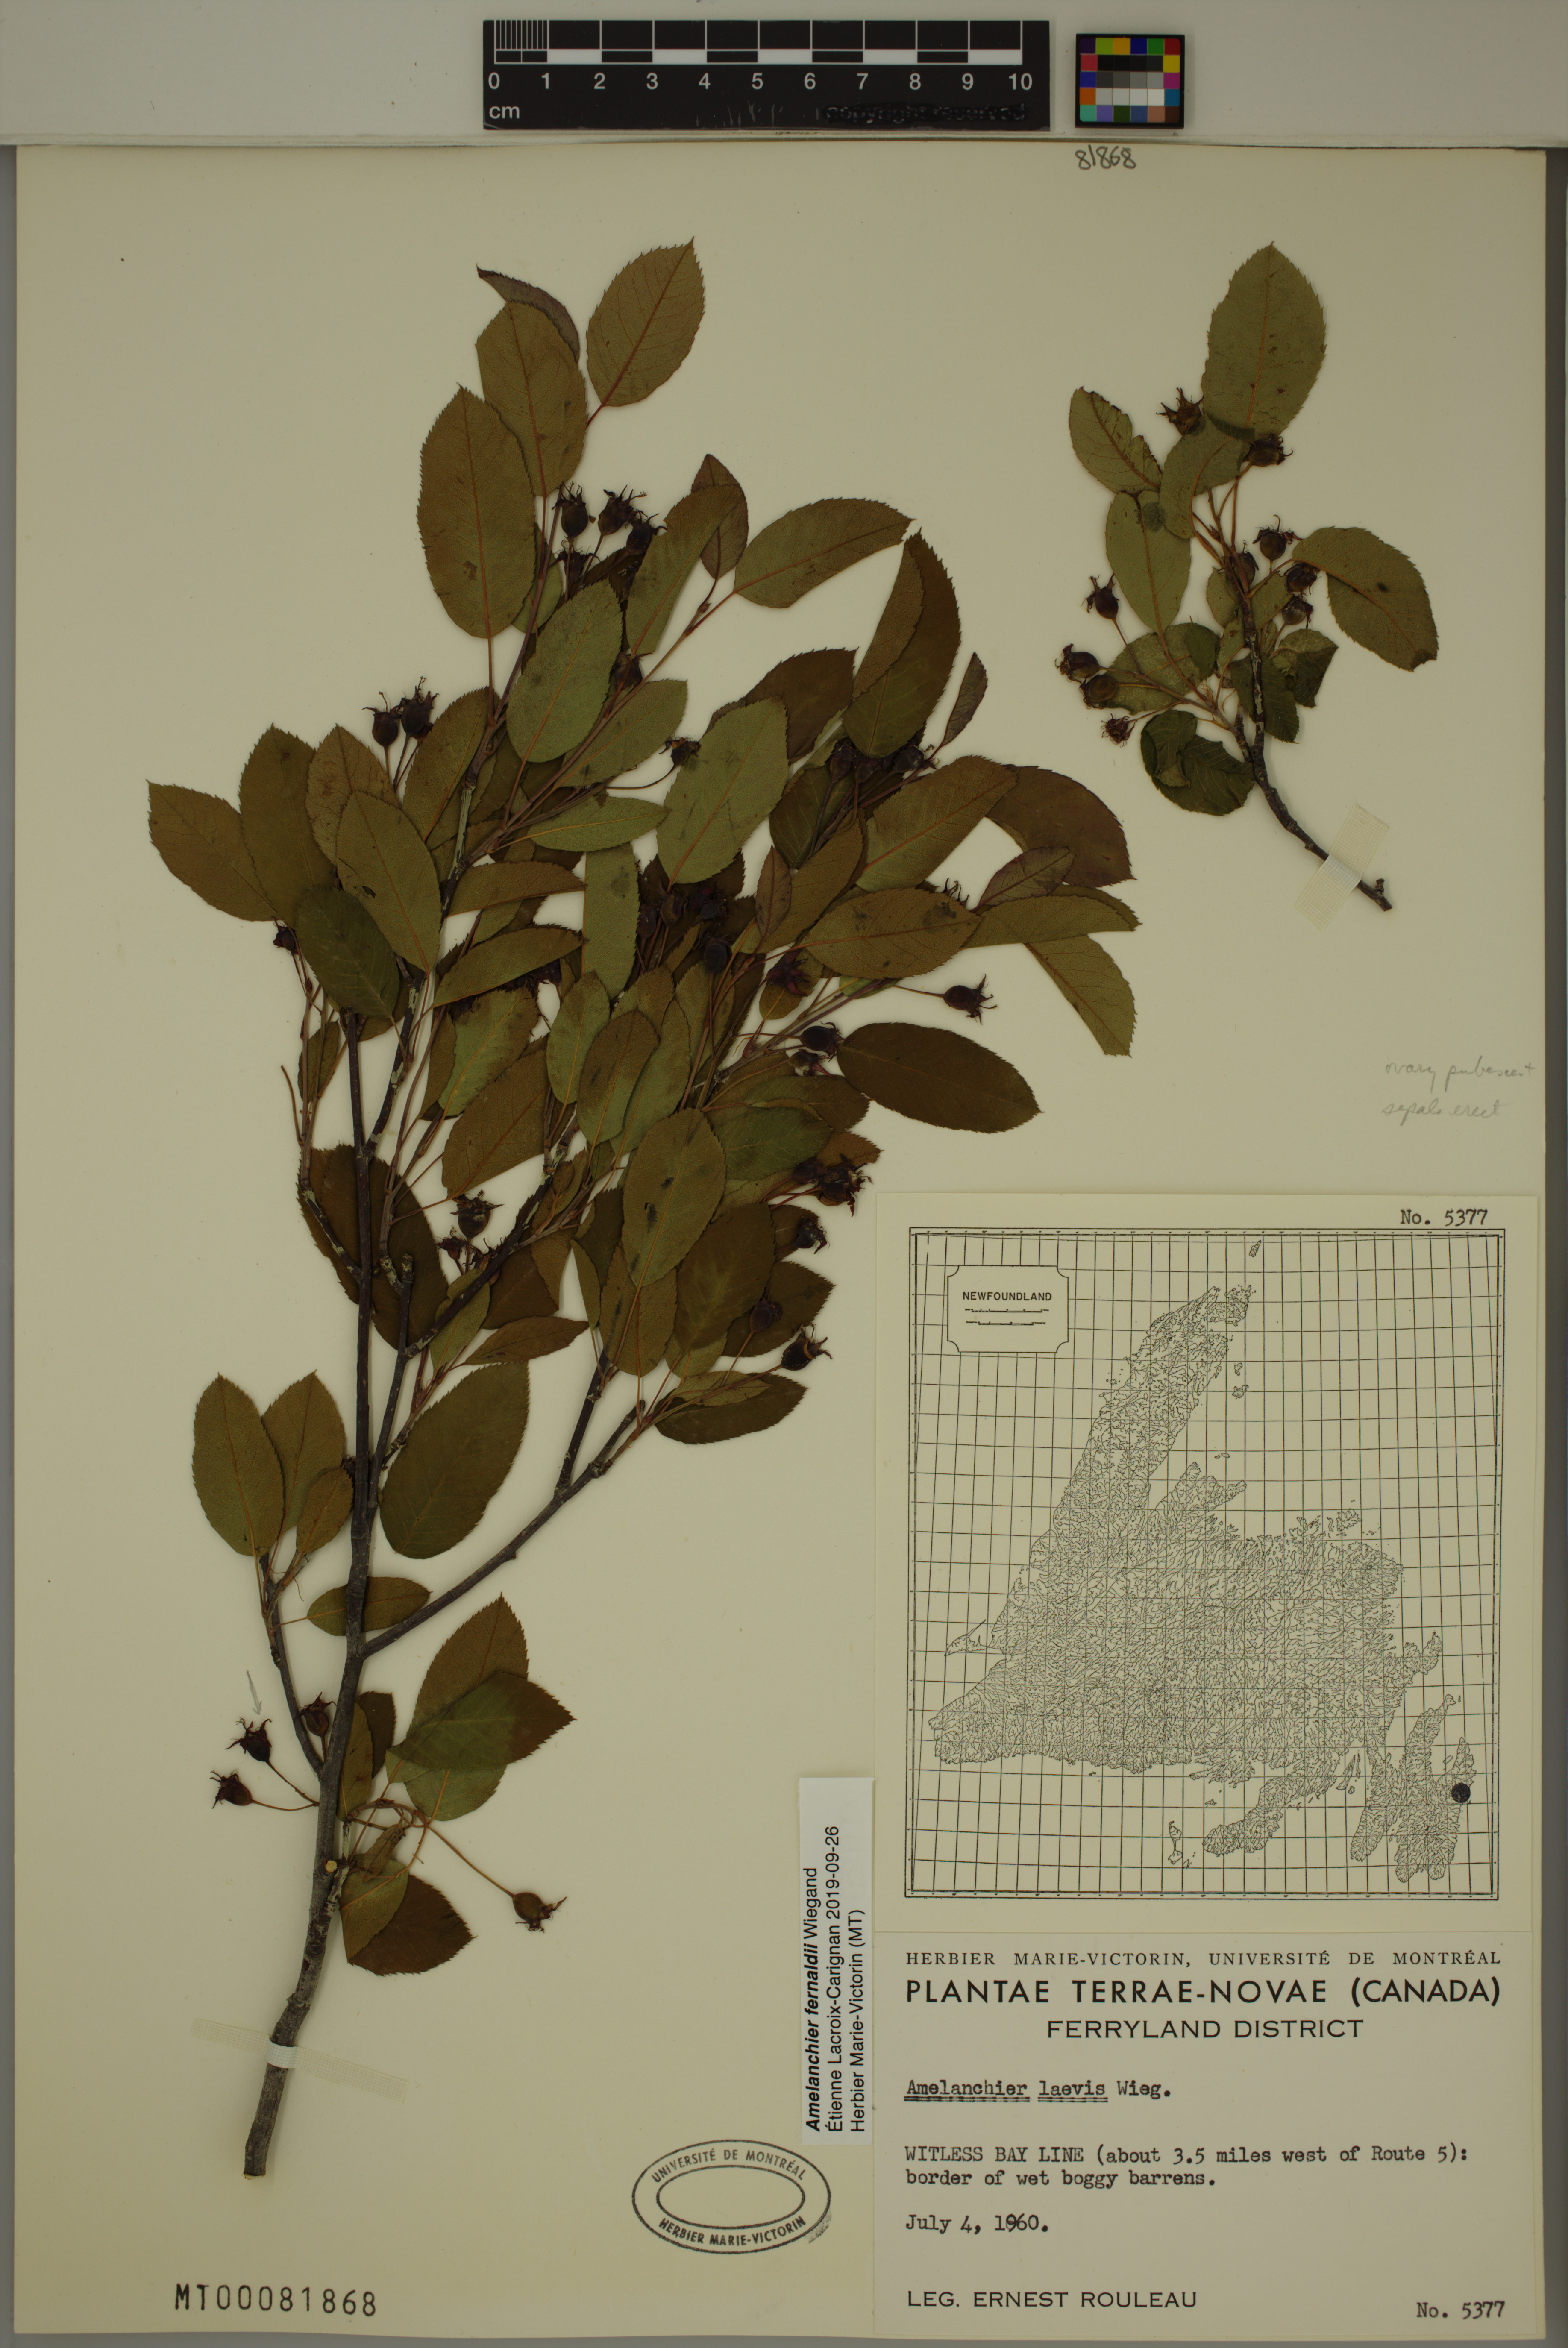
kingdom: Plantae
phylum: Tracheophyta
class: Magnoliopsida
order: Rosales
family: Rosaceae
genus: Amelanchier
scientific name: Amelanchier canadensis
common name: Thicket serviceberry
